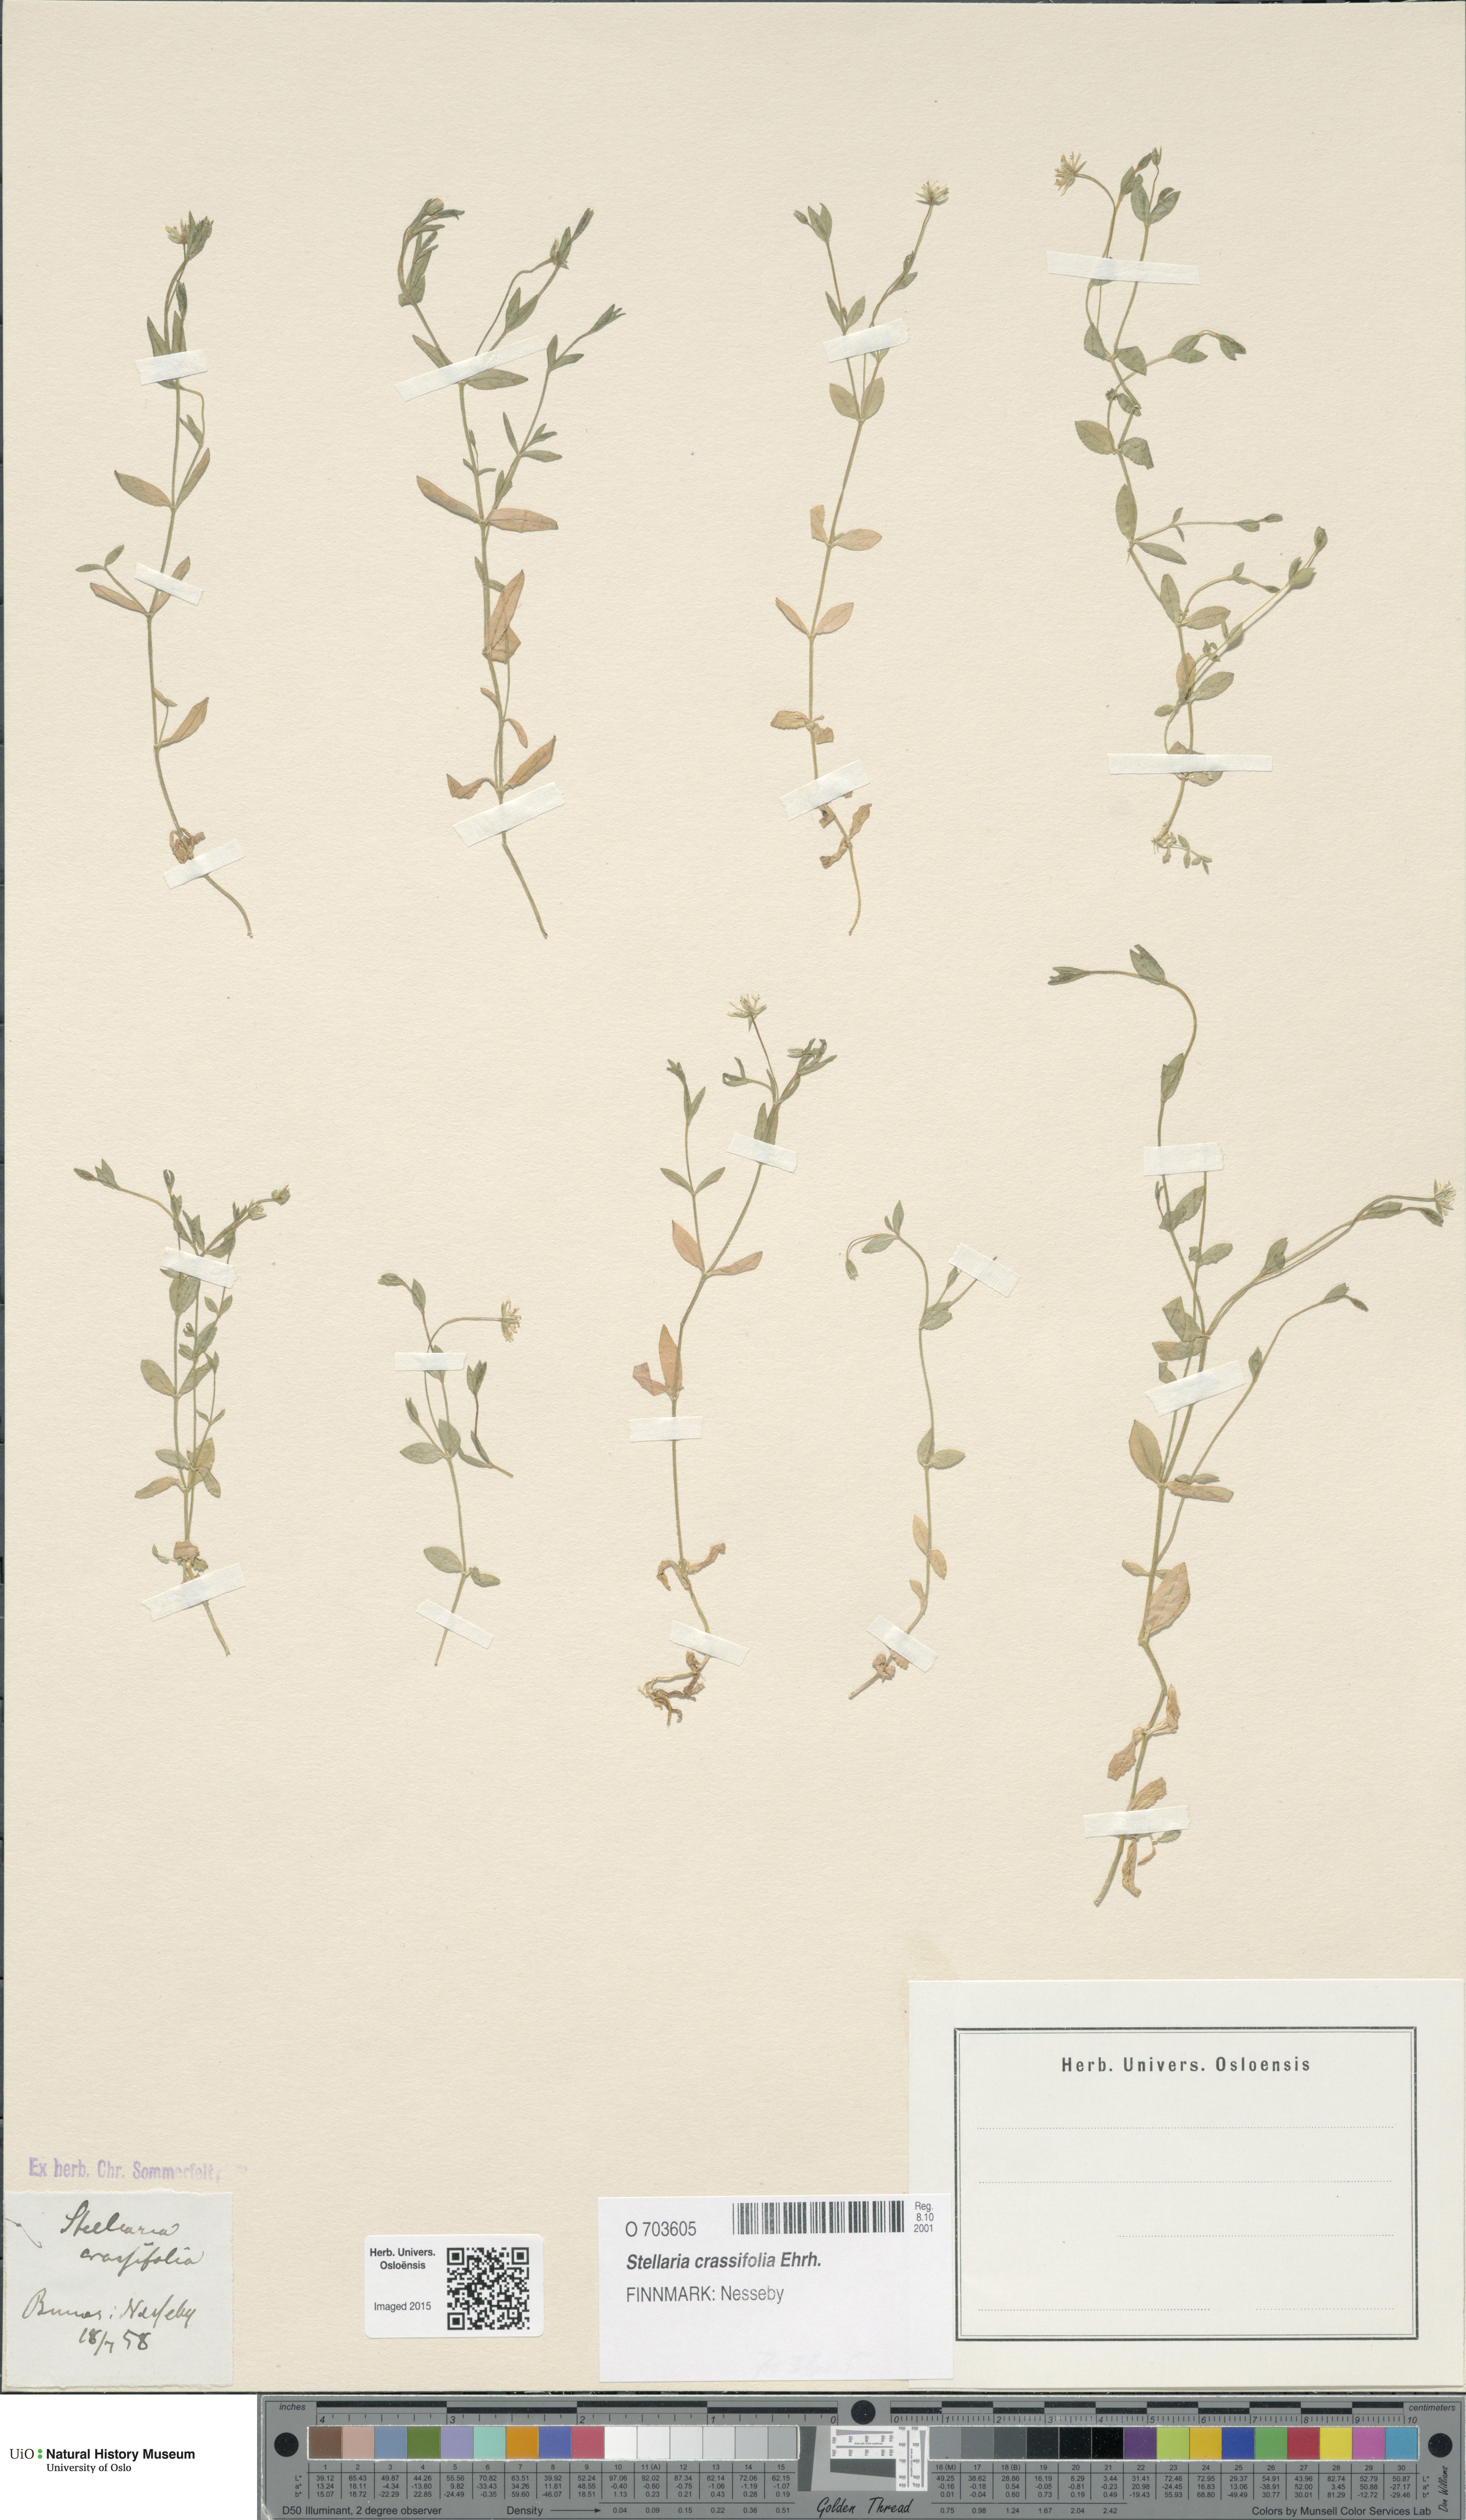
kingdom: Plantae
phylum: Tracheophyta
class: Magnoliopsida
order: Caryophyllales
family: Caryophyllaceae
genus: Stellaria
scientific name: Stellaria crassifolia
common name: Fleshy starwort
